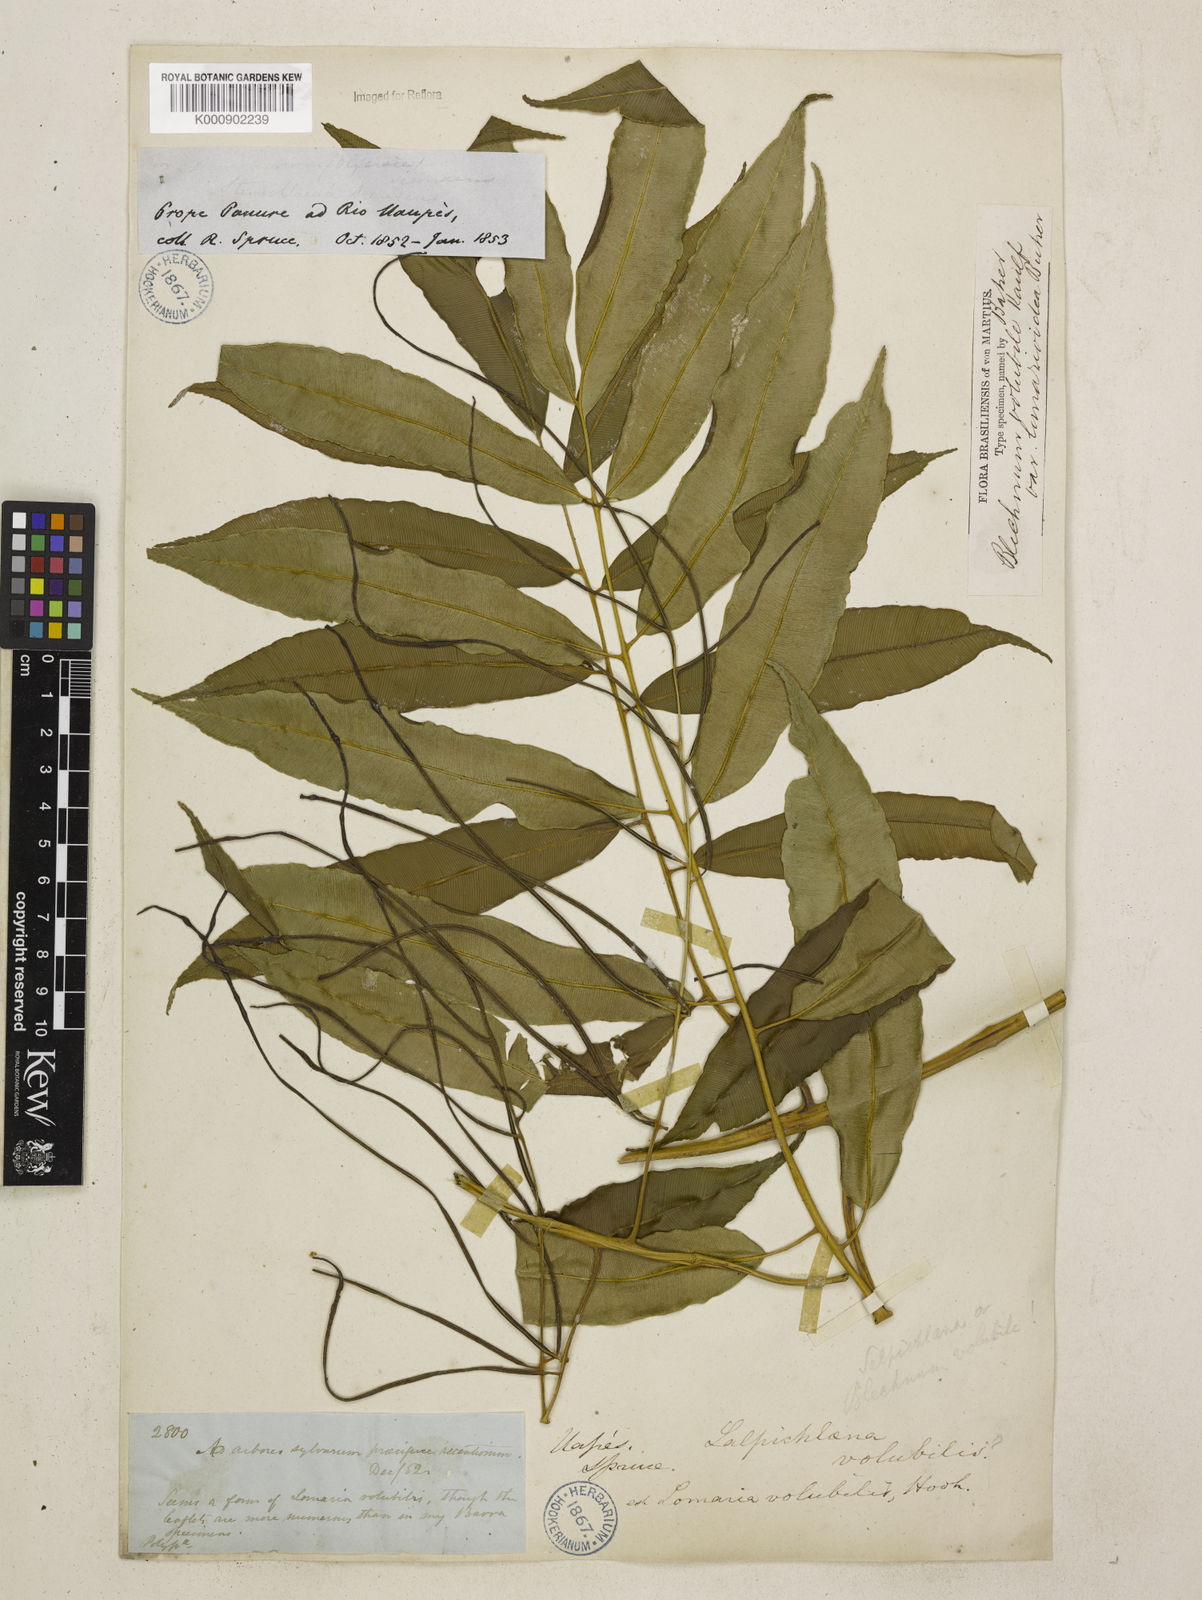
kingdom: Plantae
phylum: Tracheophyta
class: Polypodiopsida
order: Polypodiales
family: Blechnaceae
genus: Salpichlaena
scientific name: Salpichlaena volubilis
